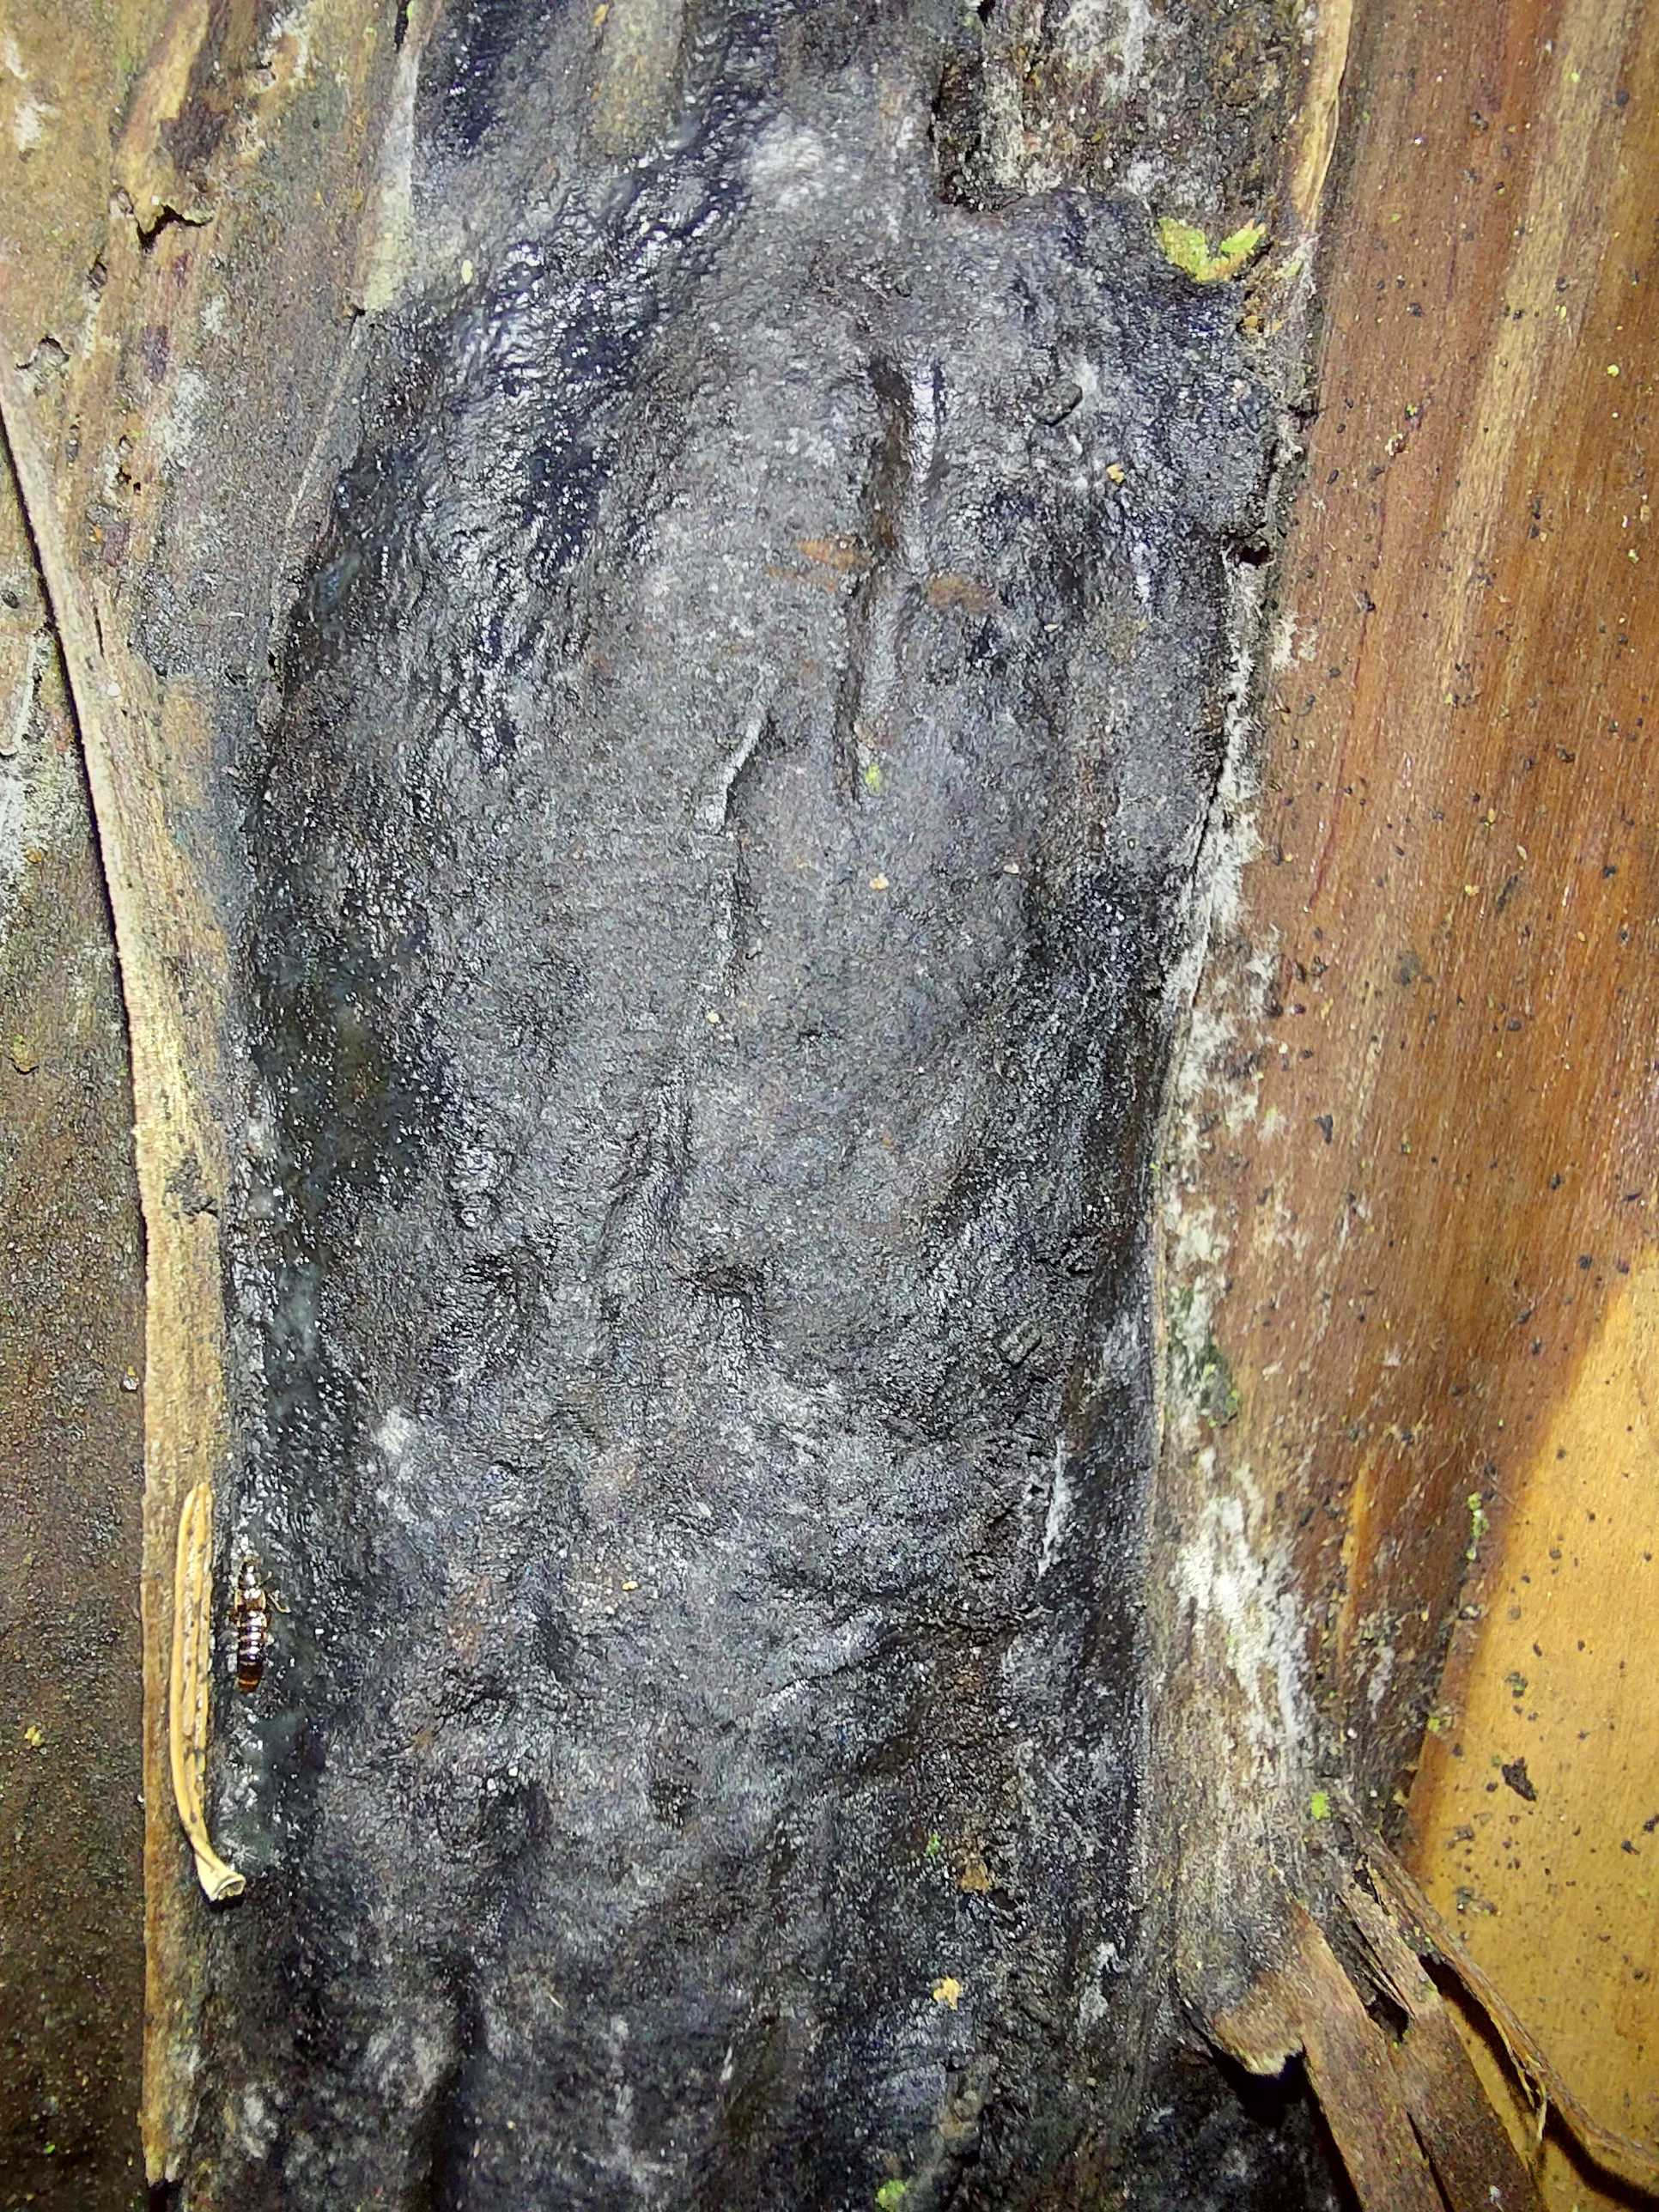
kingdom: Fungi
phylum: Ascomycota
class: Sordariomycetes
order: Boliniales
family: Boliniaceae
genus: Camarops
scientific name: Camarops tubulina
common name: knudret kulsnegl
